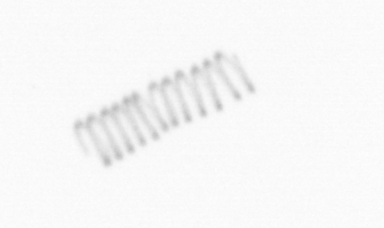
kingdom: Chromista
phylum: Ochrophyta
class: Bacillariophyceae
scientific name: Bacillariophyceae
